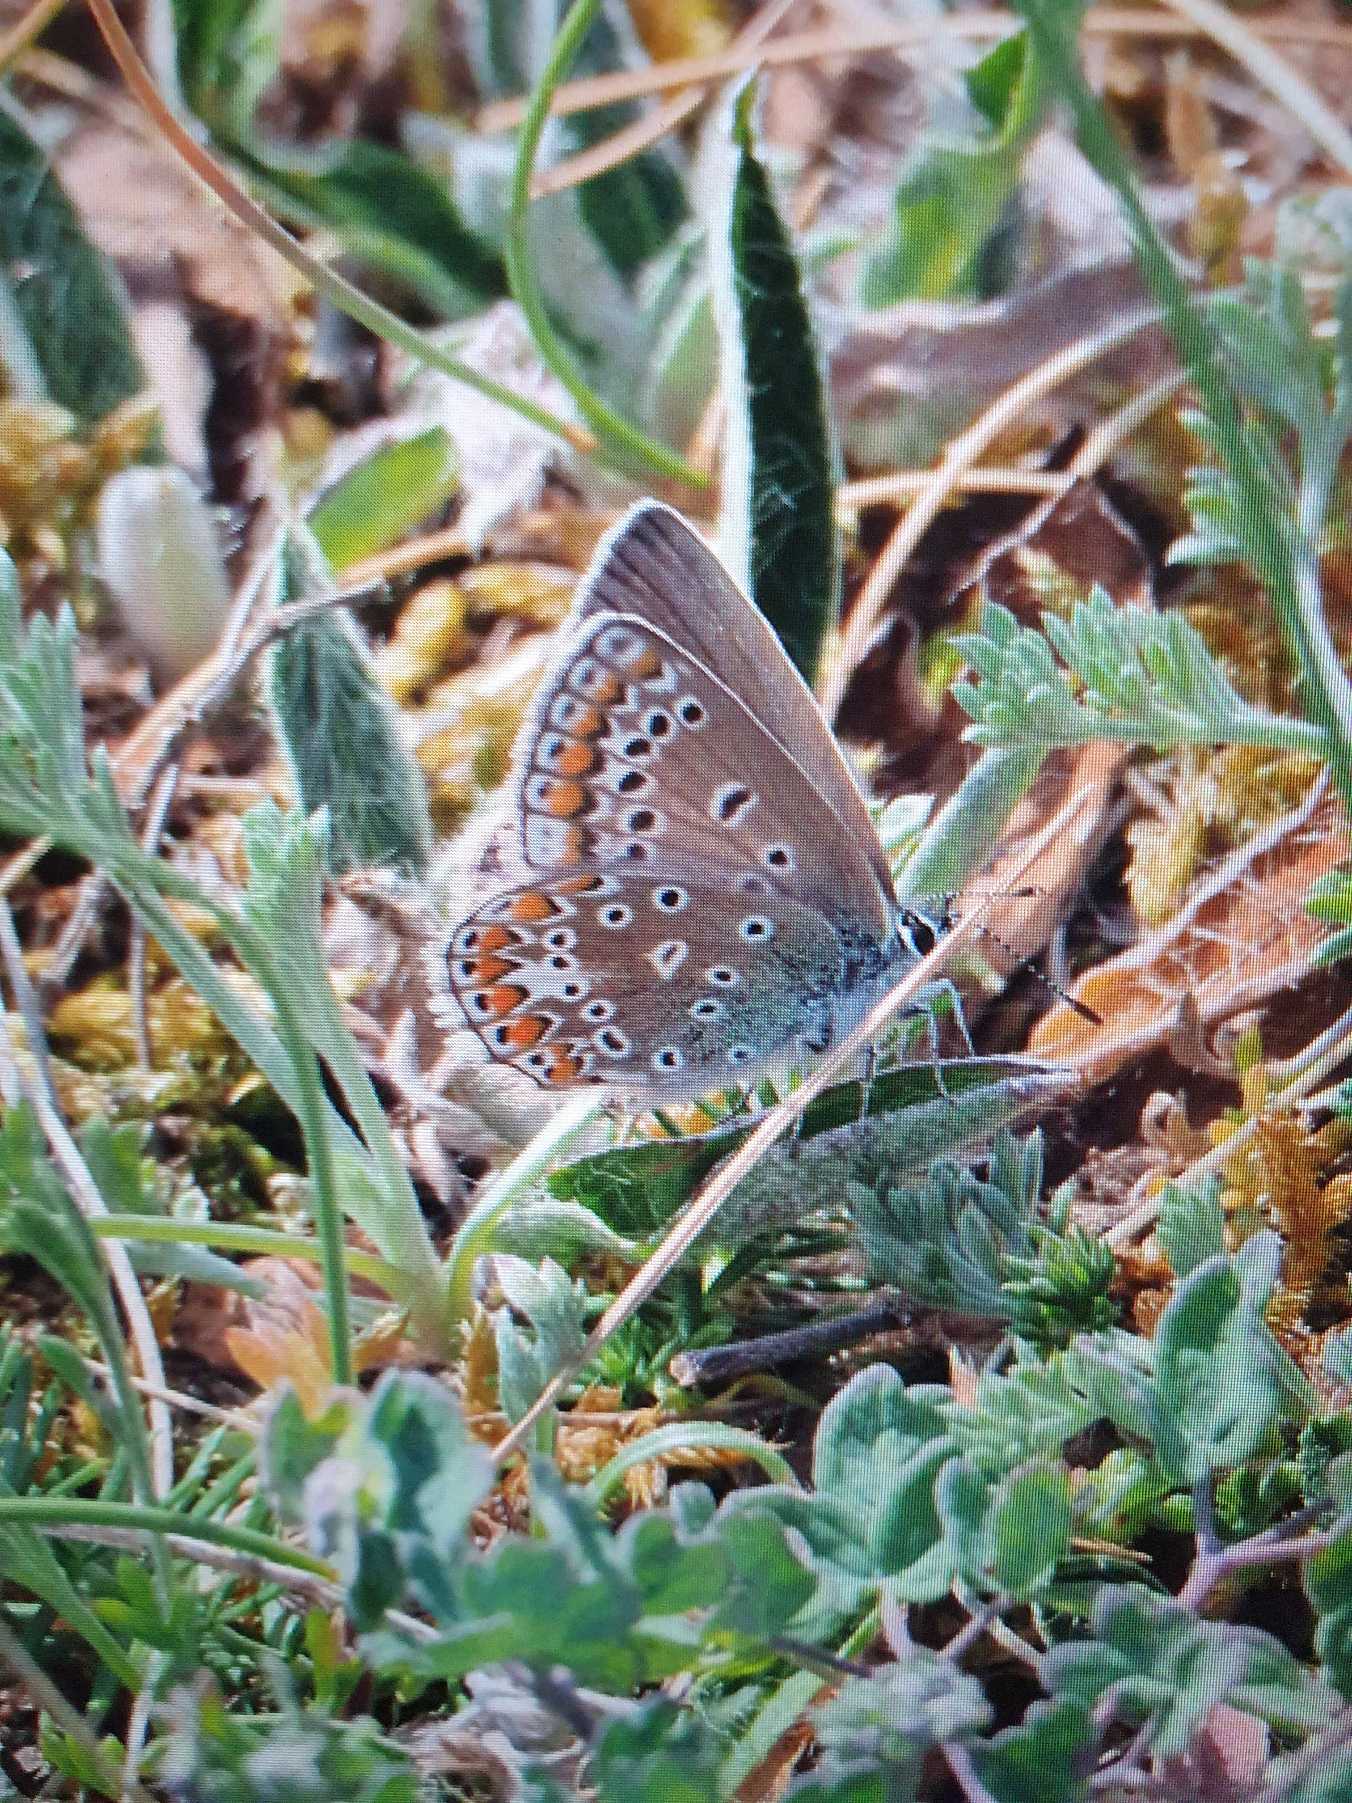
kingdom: Animalia
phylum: Arthropoda
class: Insecta
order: Lepidoptera
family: Lycaenidae
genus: Polyommatus
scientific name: Polyommatus icarus
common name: Almindelig blåfugl
